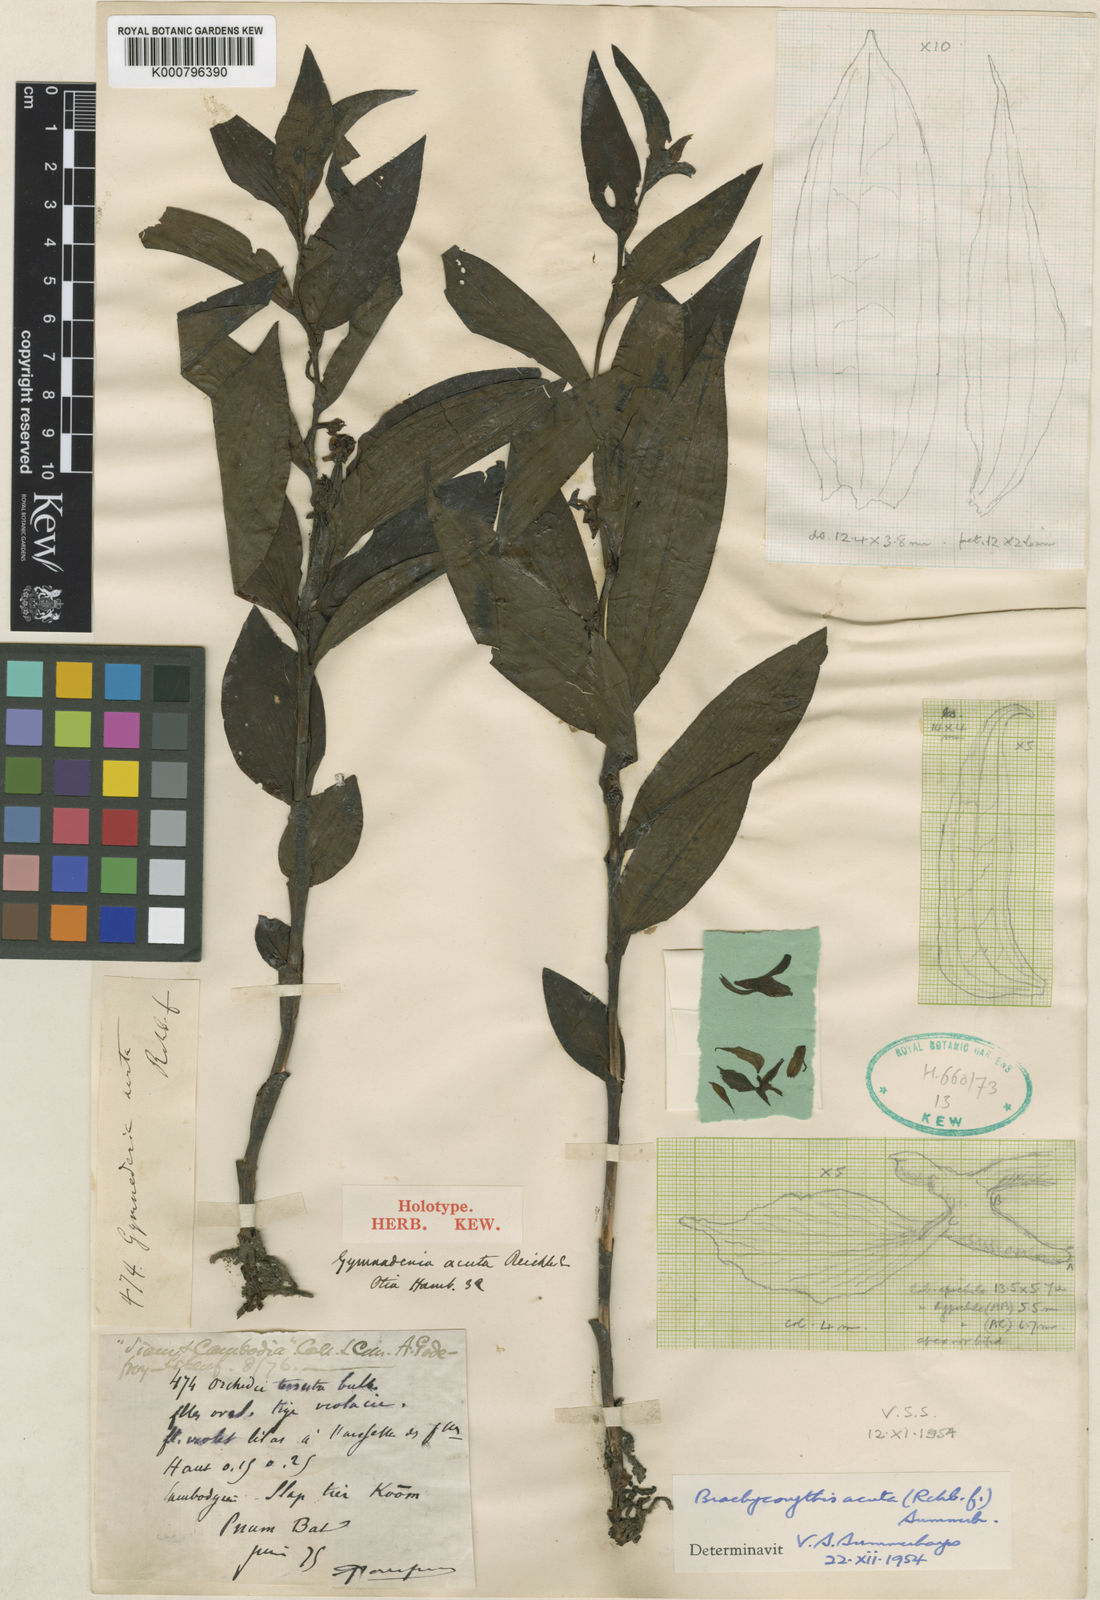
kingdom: Plantae
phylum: Tracheophyta
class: Liliopsida
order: Asparagales
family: Orchidaceae
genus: Brachycorythis
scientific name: Brachycorythis acuta
